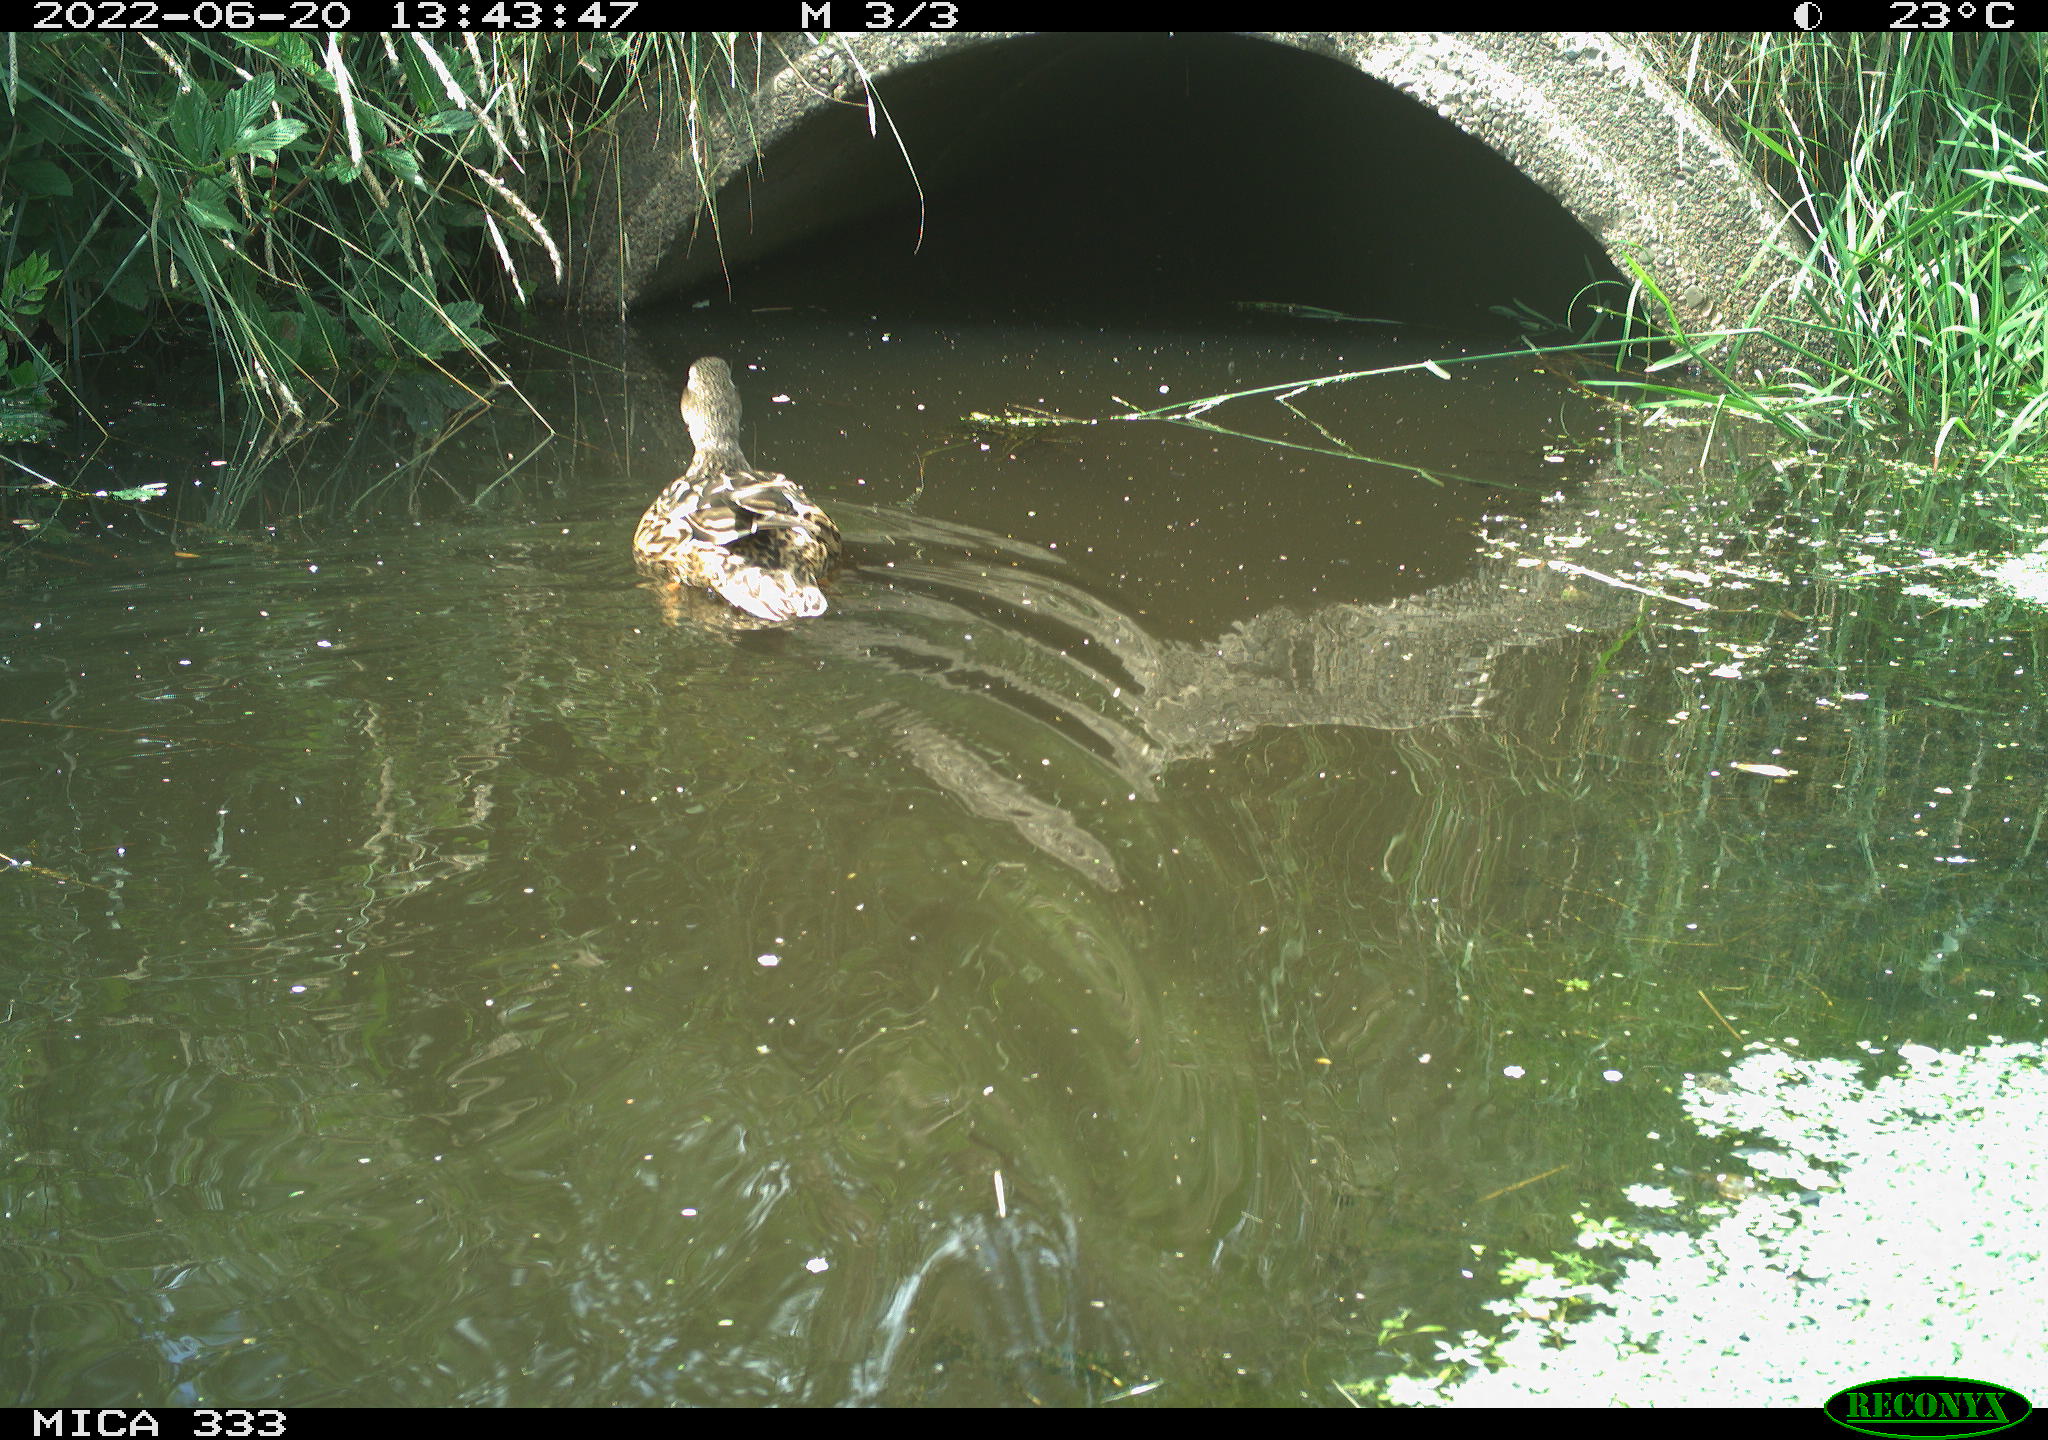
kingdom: Animalia
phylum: Chordata
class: Aves
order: Anseriformes
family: Anatidae
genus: Anas
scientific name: Anas platyrhynchos
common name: Mallard
